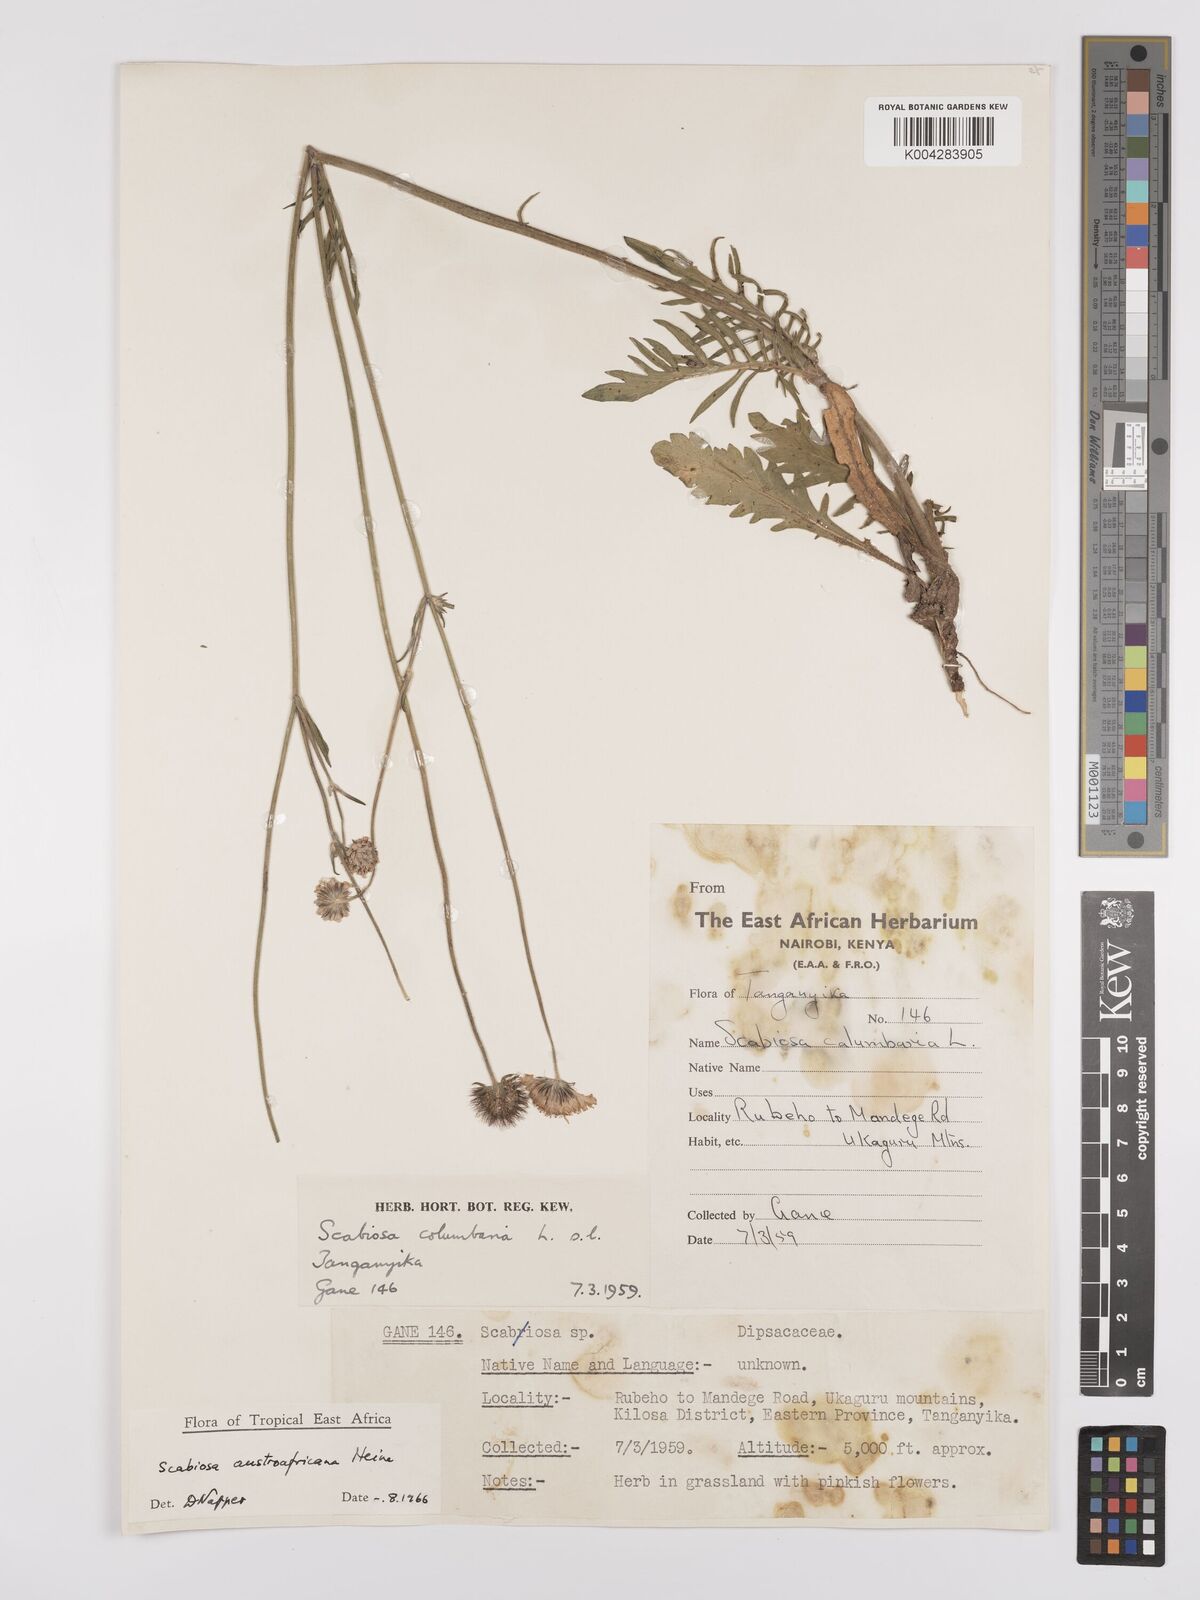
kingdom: Plantae
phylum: Tracheophyta
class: Magnoliopsida
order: Dipsacales
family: Caprifoliaceae
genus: Scabiosa
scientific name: Scabiosa austroafricana
